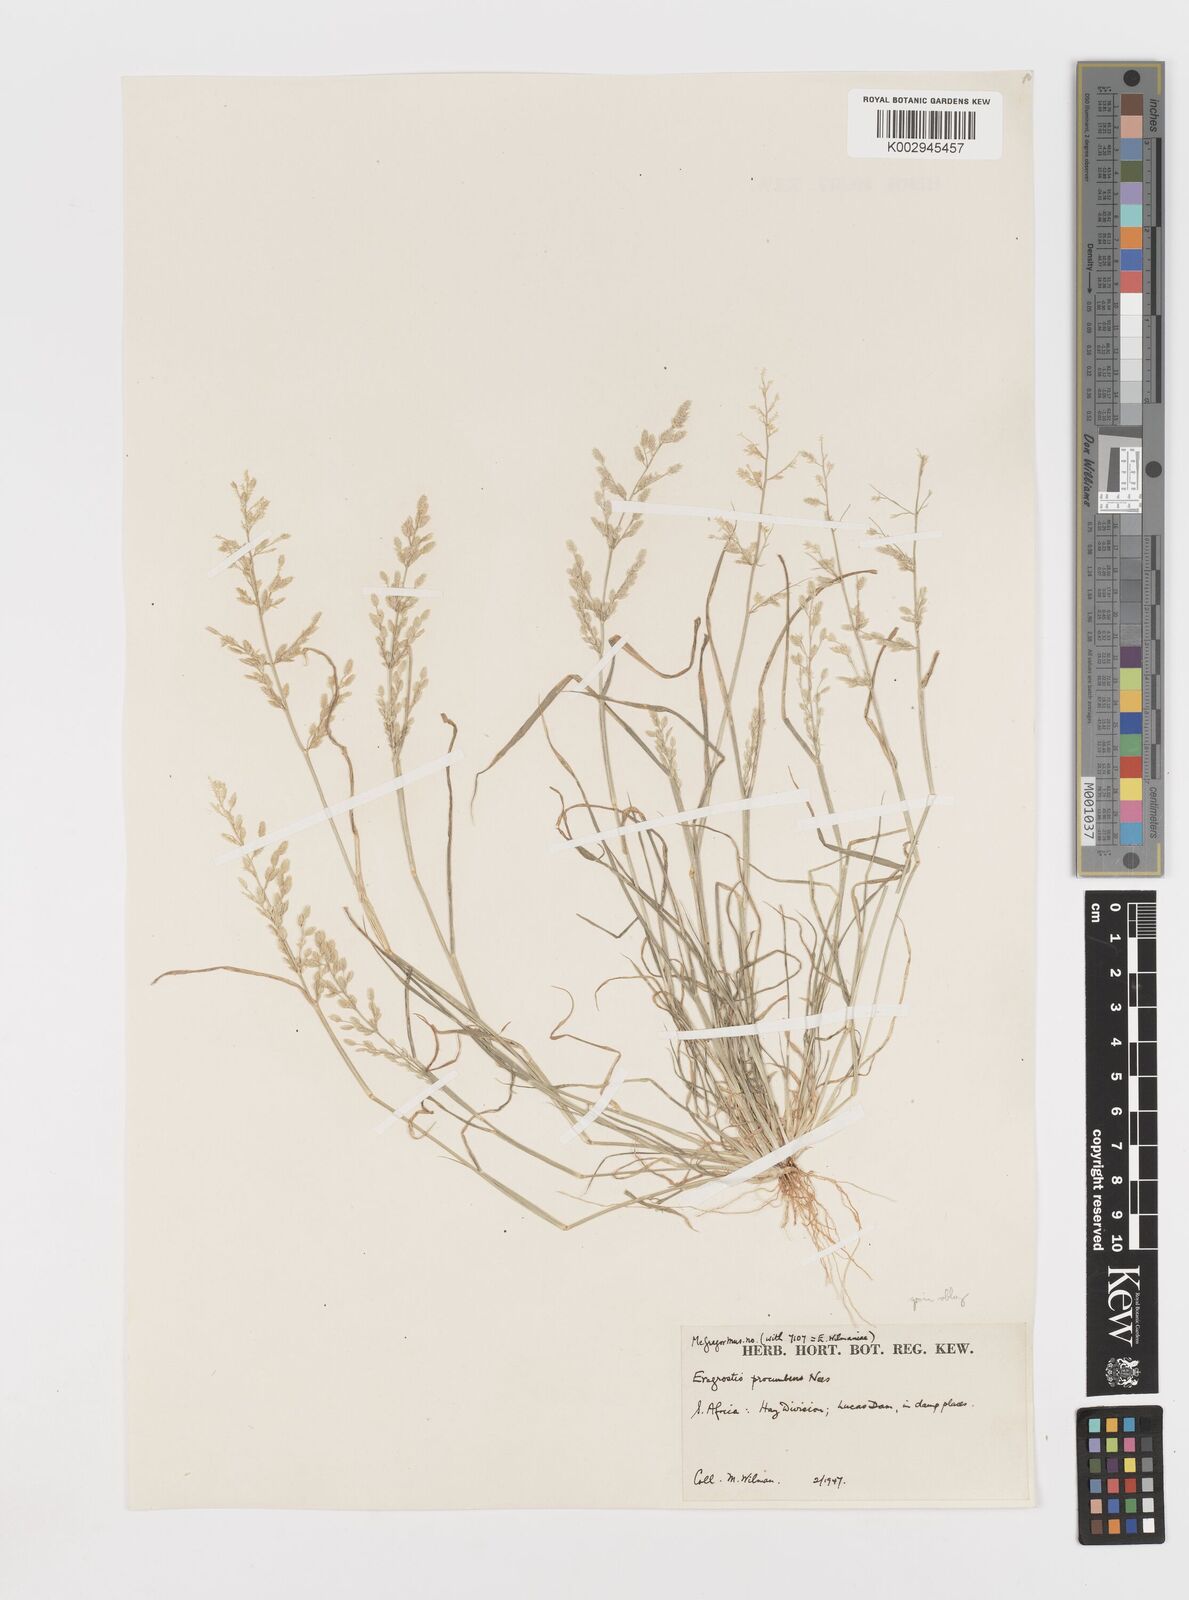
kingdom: Plantae
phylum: Tracheophyta
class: Liliopsida
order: Poales
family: Poaceae
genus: Eragrostis
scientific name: Eragrostis procumbens
